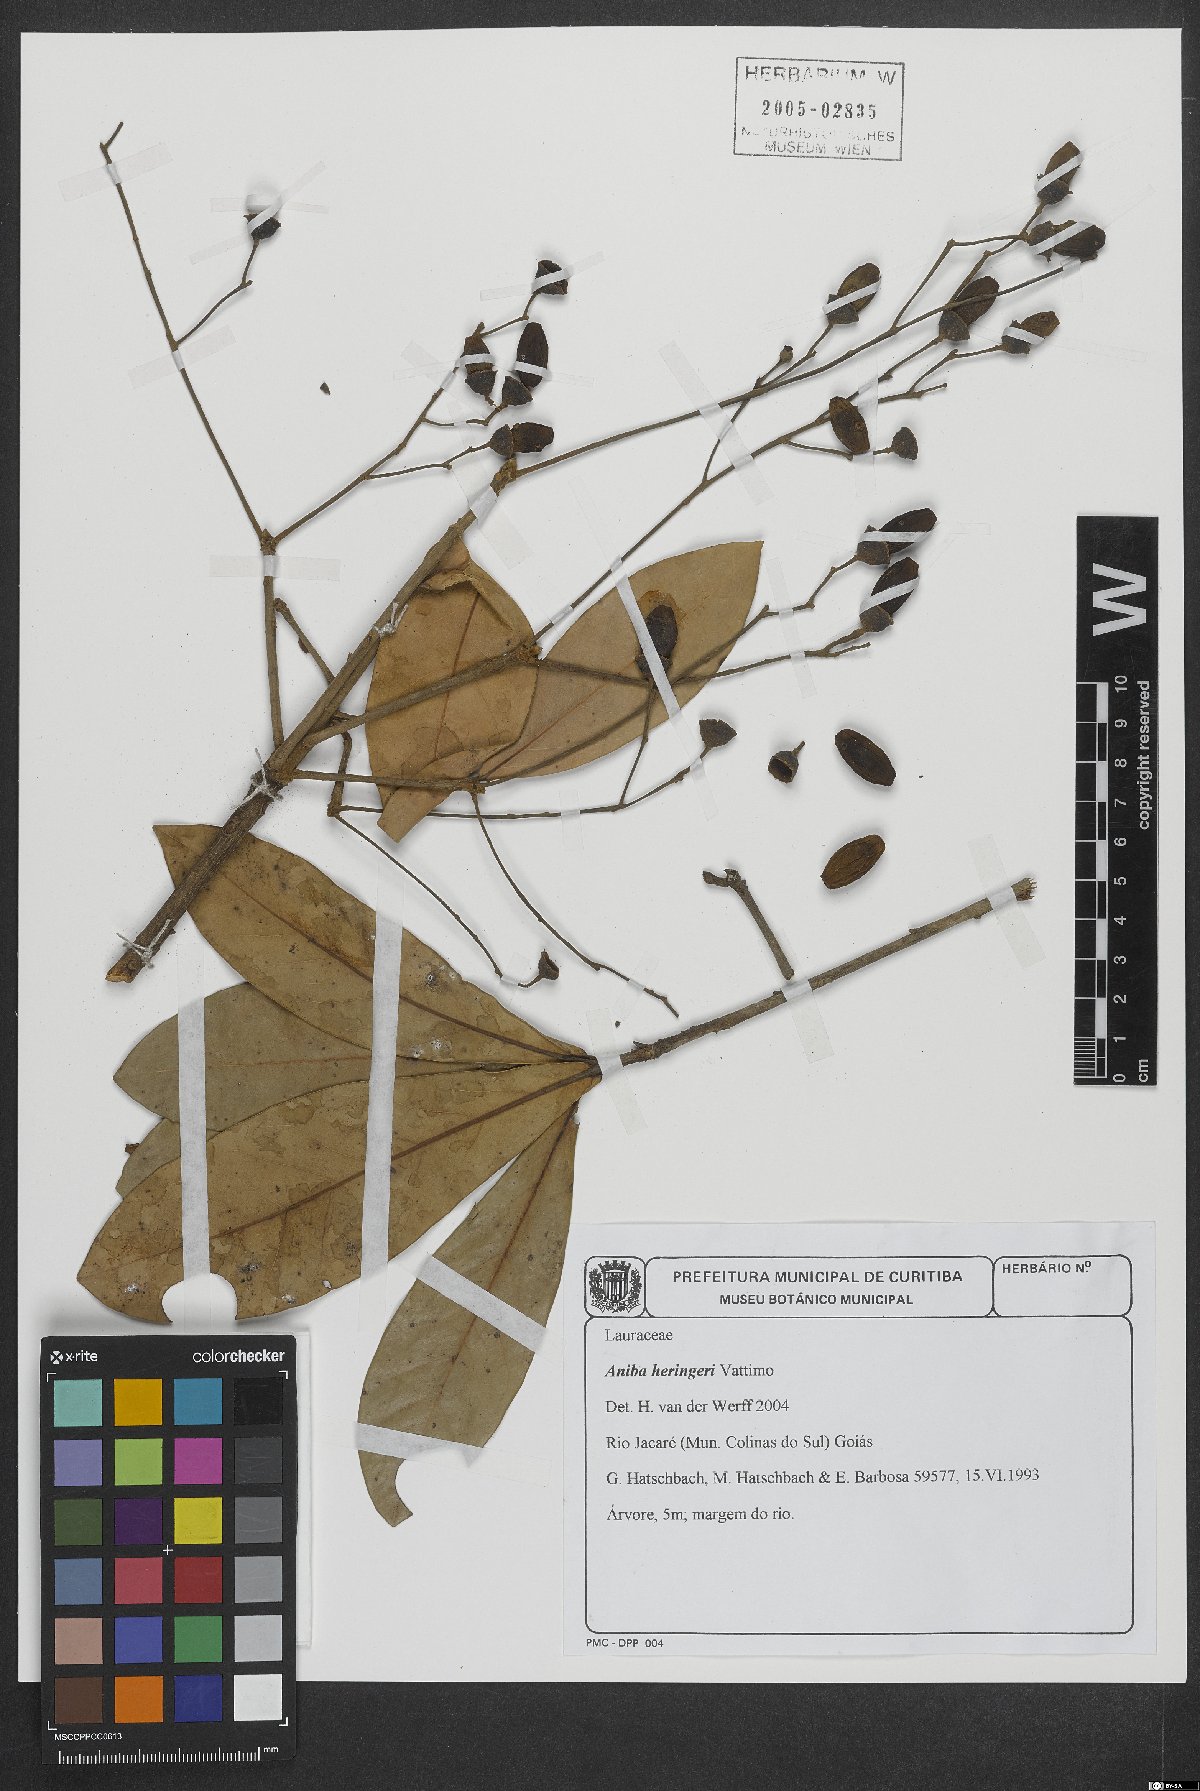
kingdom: Plantae
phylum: Tracheophyta
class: Magnoliopsida
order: Laurales
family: Lauraceae
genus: Aniba
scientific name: Aniba heringeri
